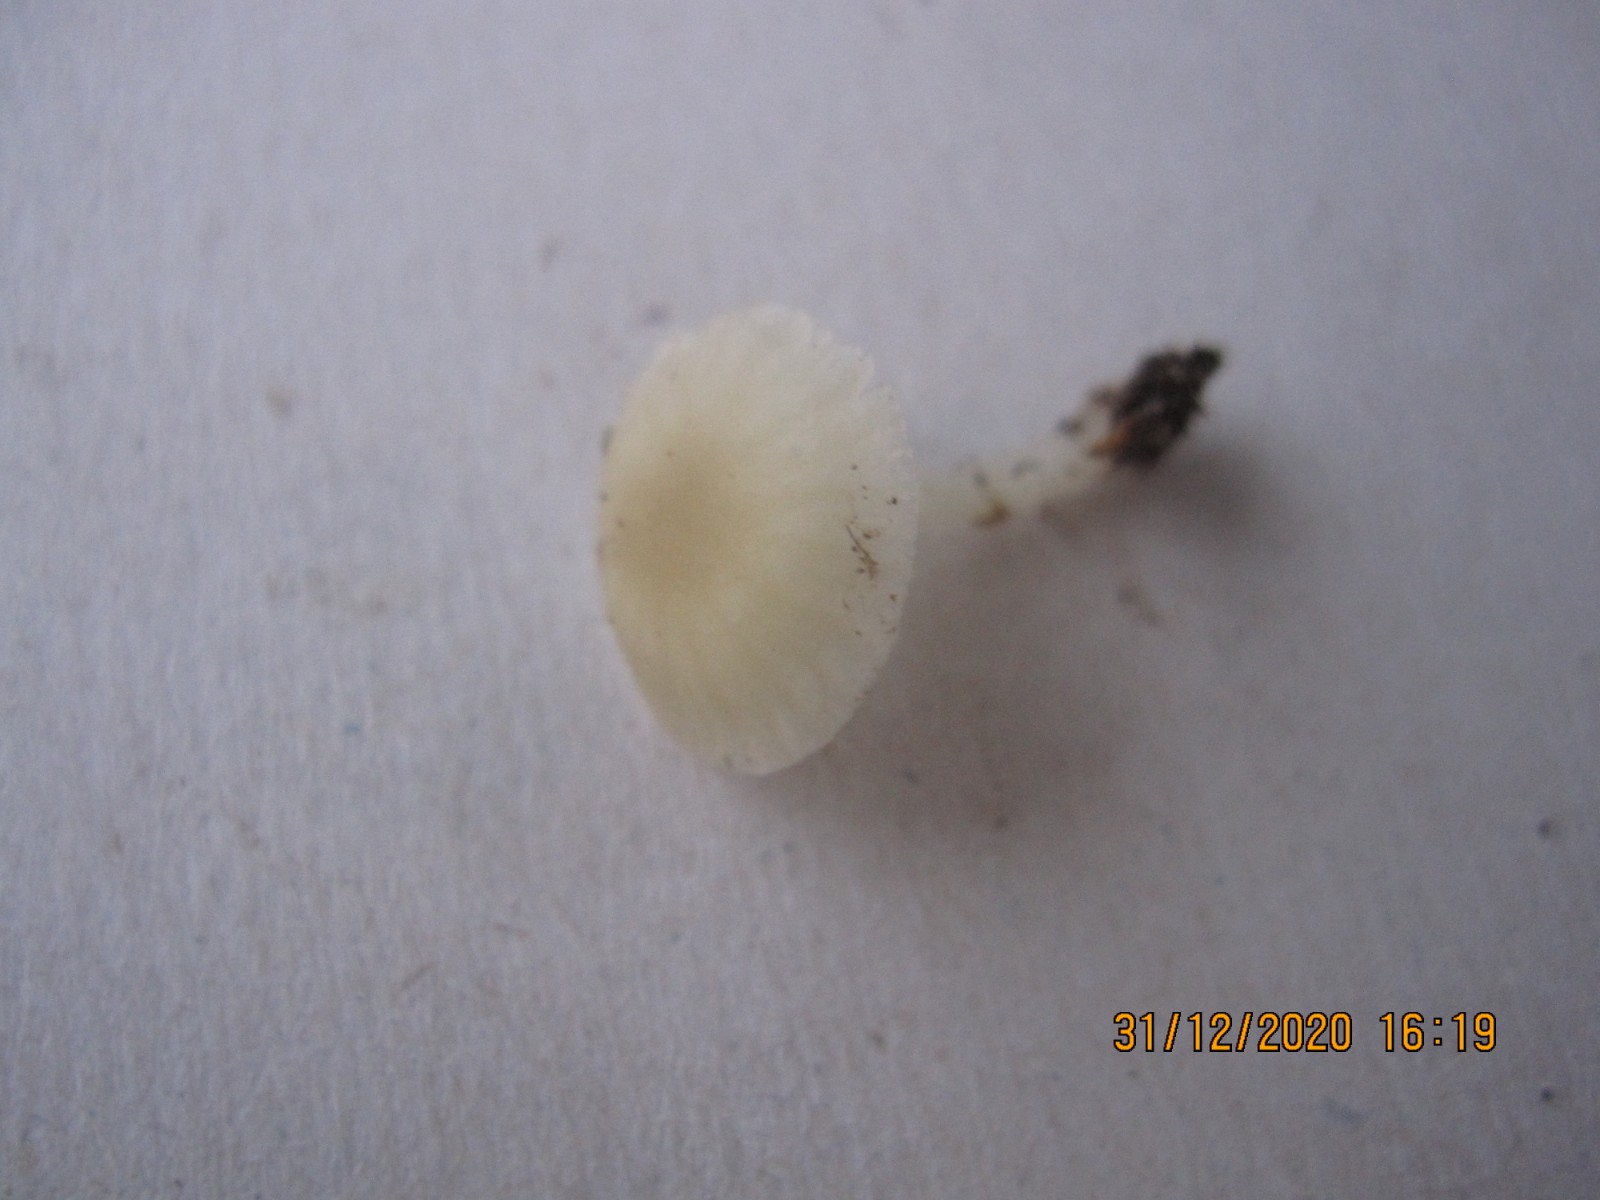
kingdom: Fungi
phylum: Basidiomycota
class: Agaricomycetes
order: Agaricales
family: Porotheleaceae
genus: Phloeomana
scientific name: Phloeomana speirea
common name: kvist-huesvamp
